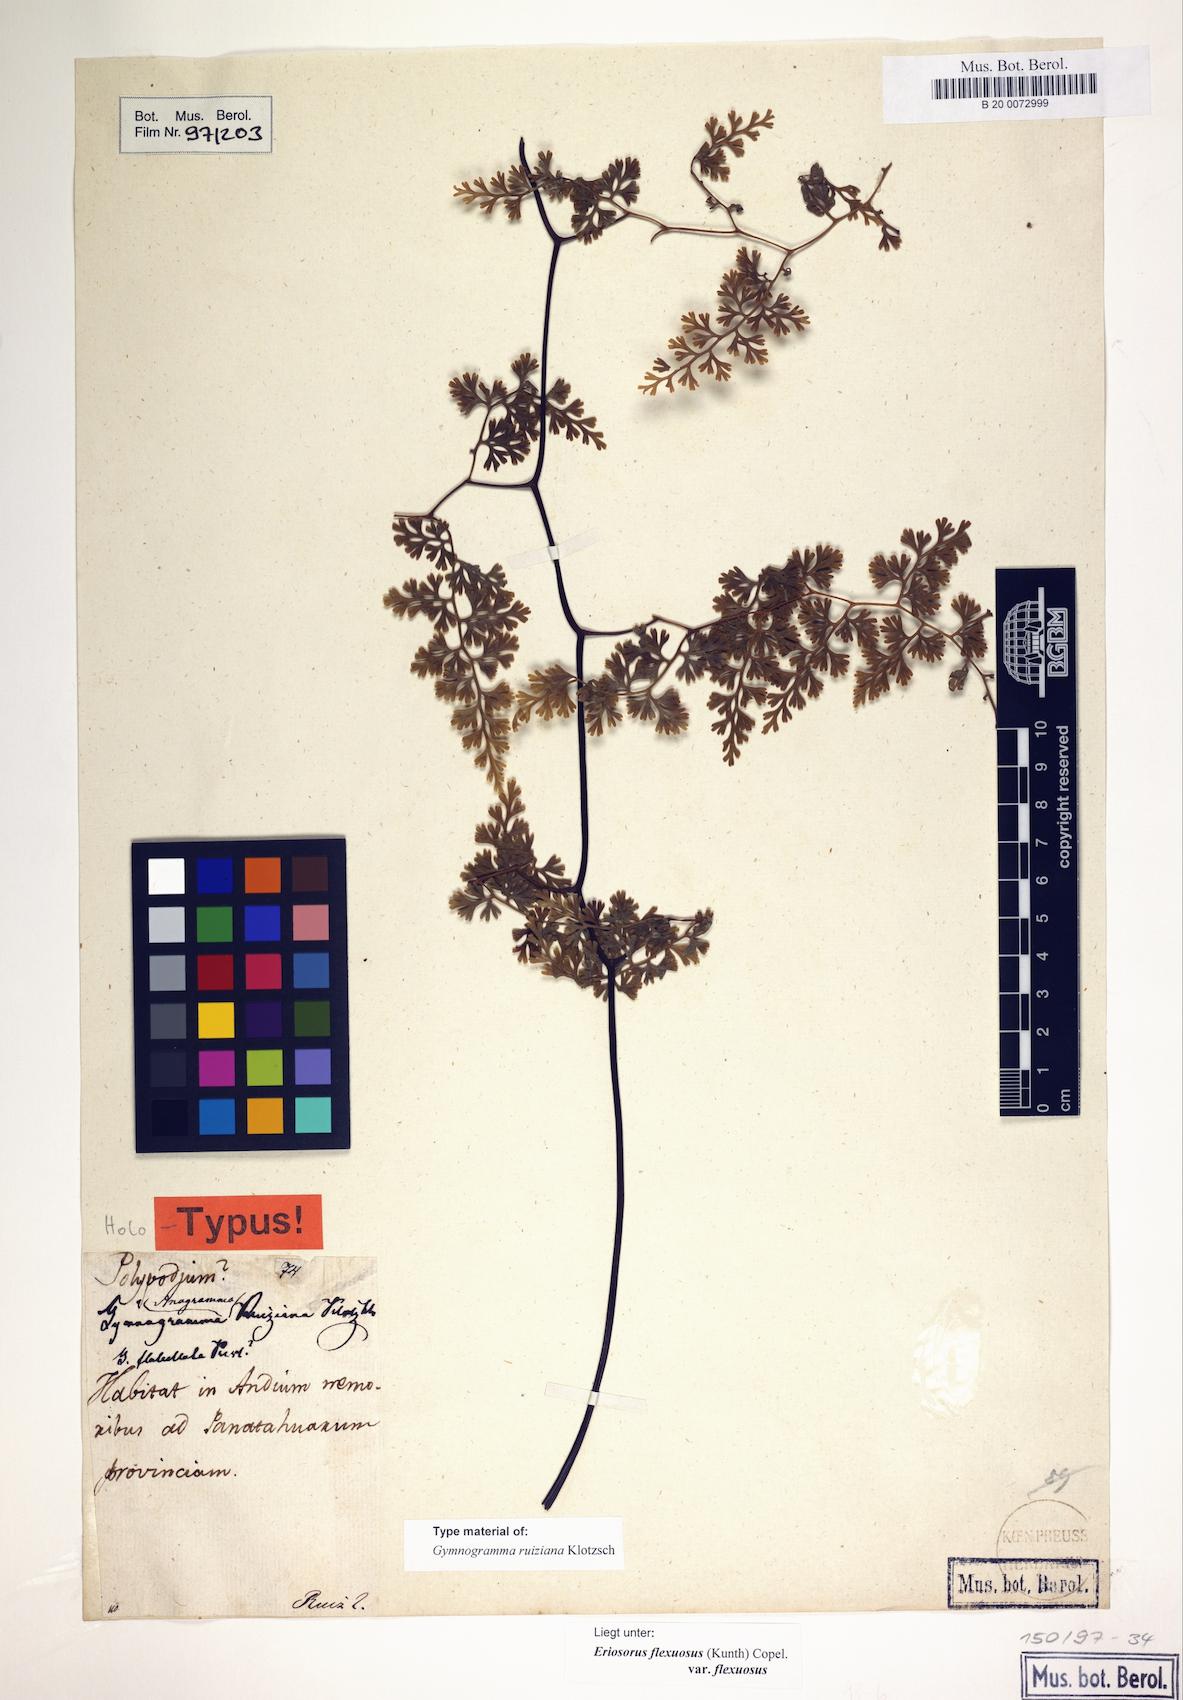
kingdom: Plantae
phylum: Tracheophyta
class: Polypodiopsida
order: Polypodiales
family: Pteridaceae
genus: Jamesonia
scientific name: Jamesonia flexuosa
